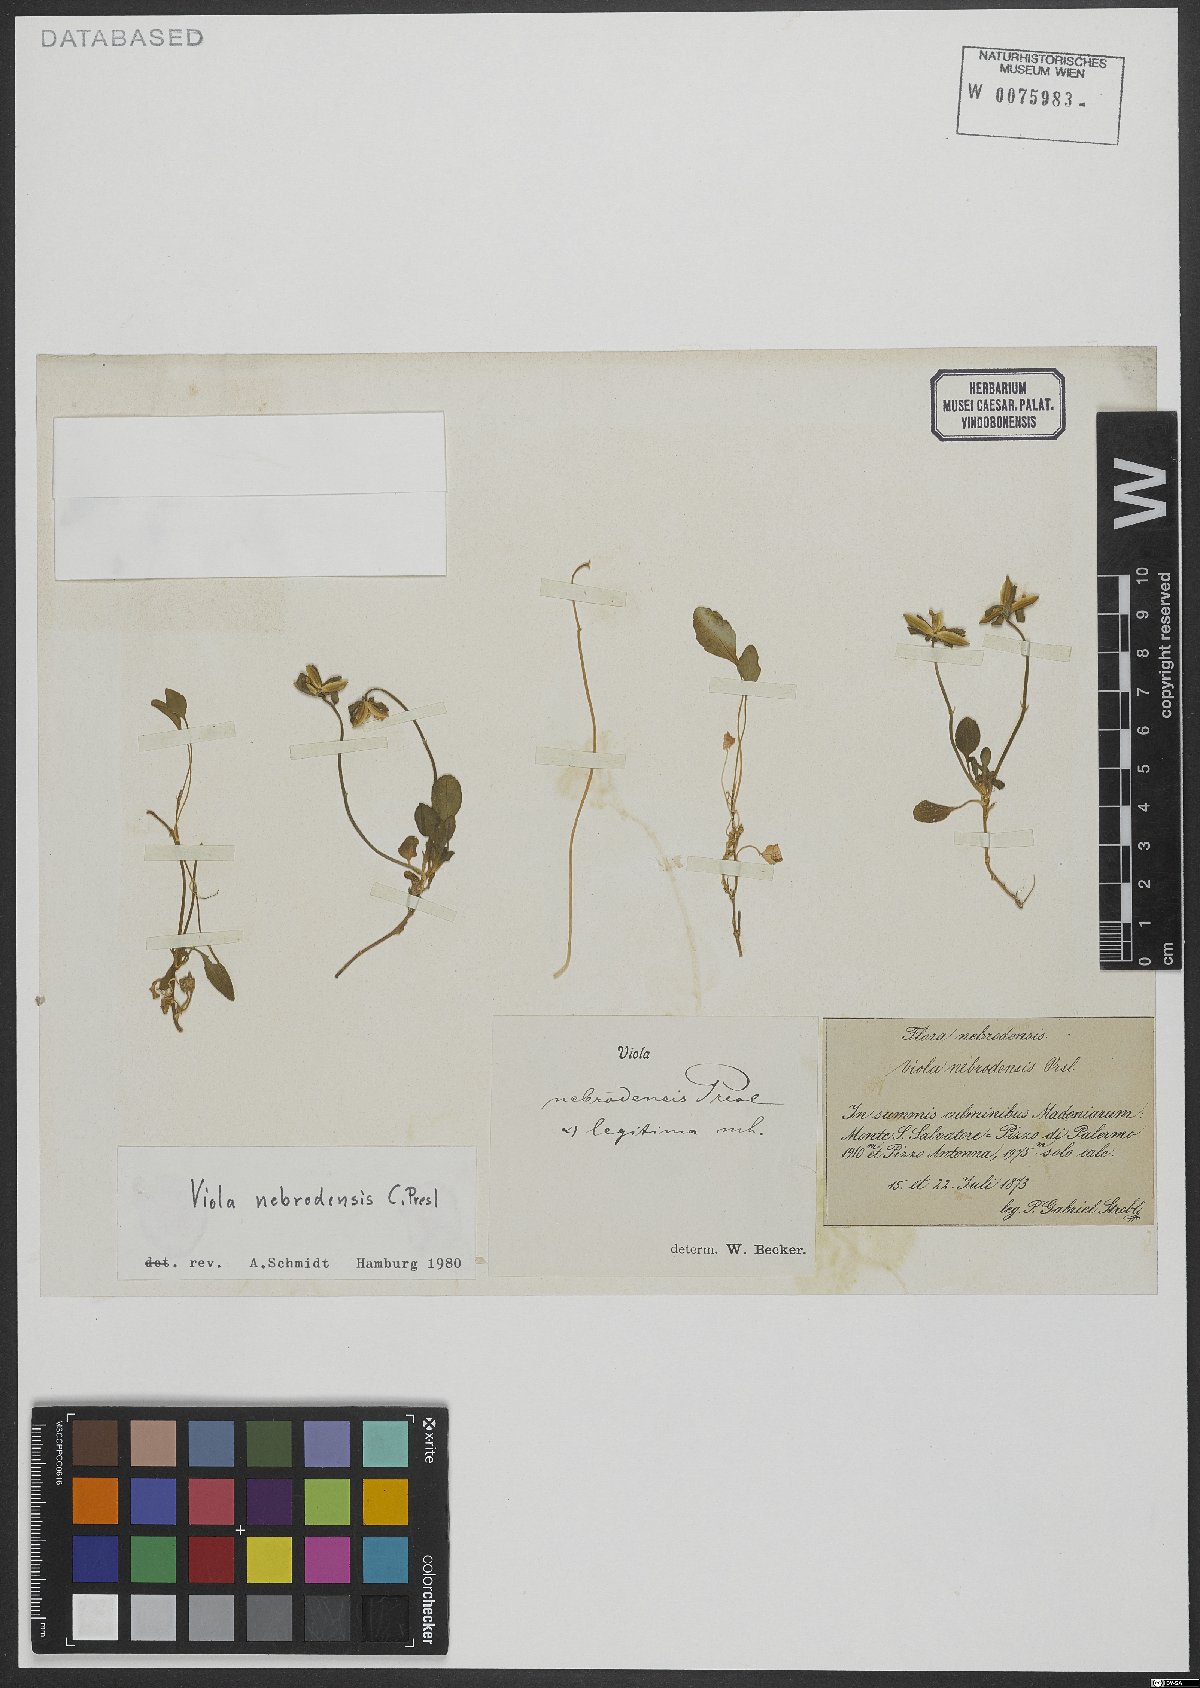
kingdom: Plantae
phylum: Tracheophyta
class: Magnoliopsida
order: Malpighiales
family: Violaceae
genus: Viola
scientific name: Viola nebrodensis
